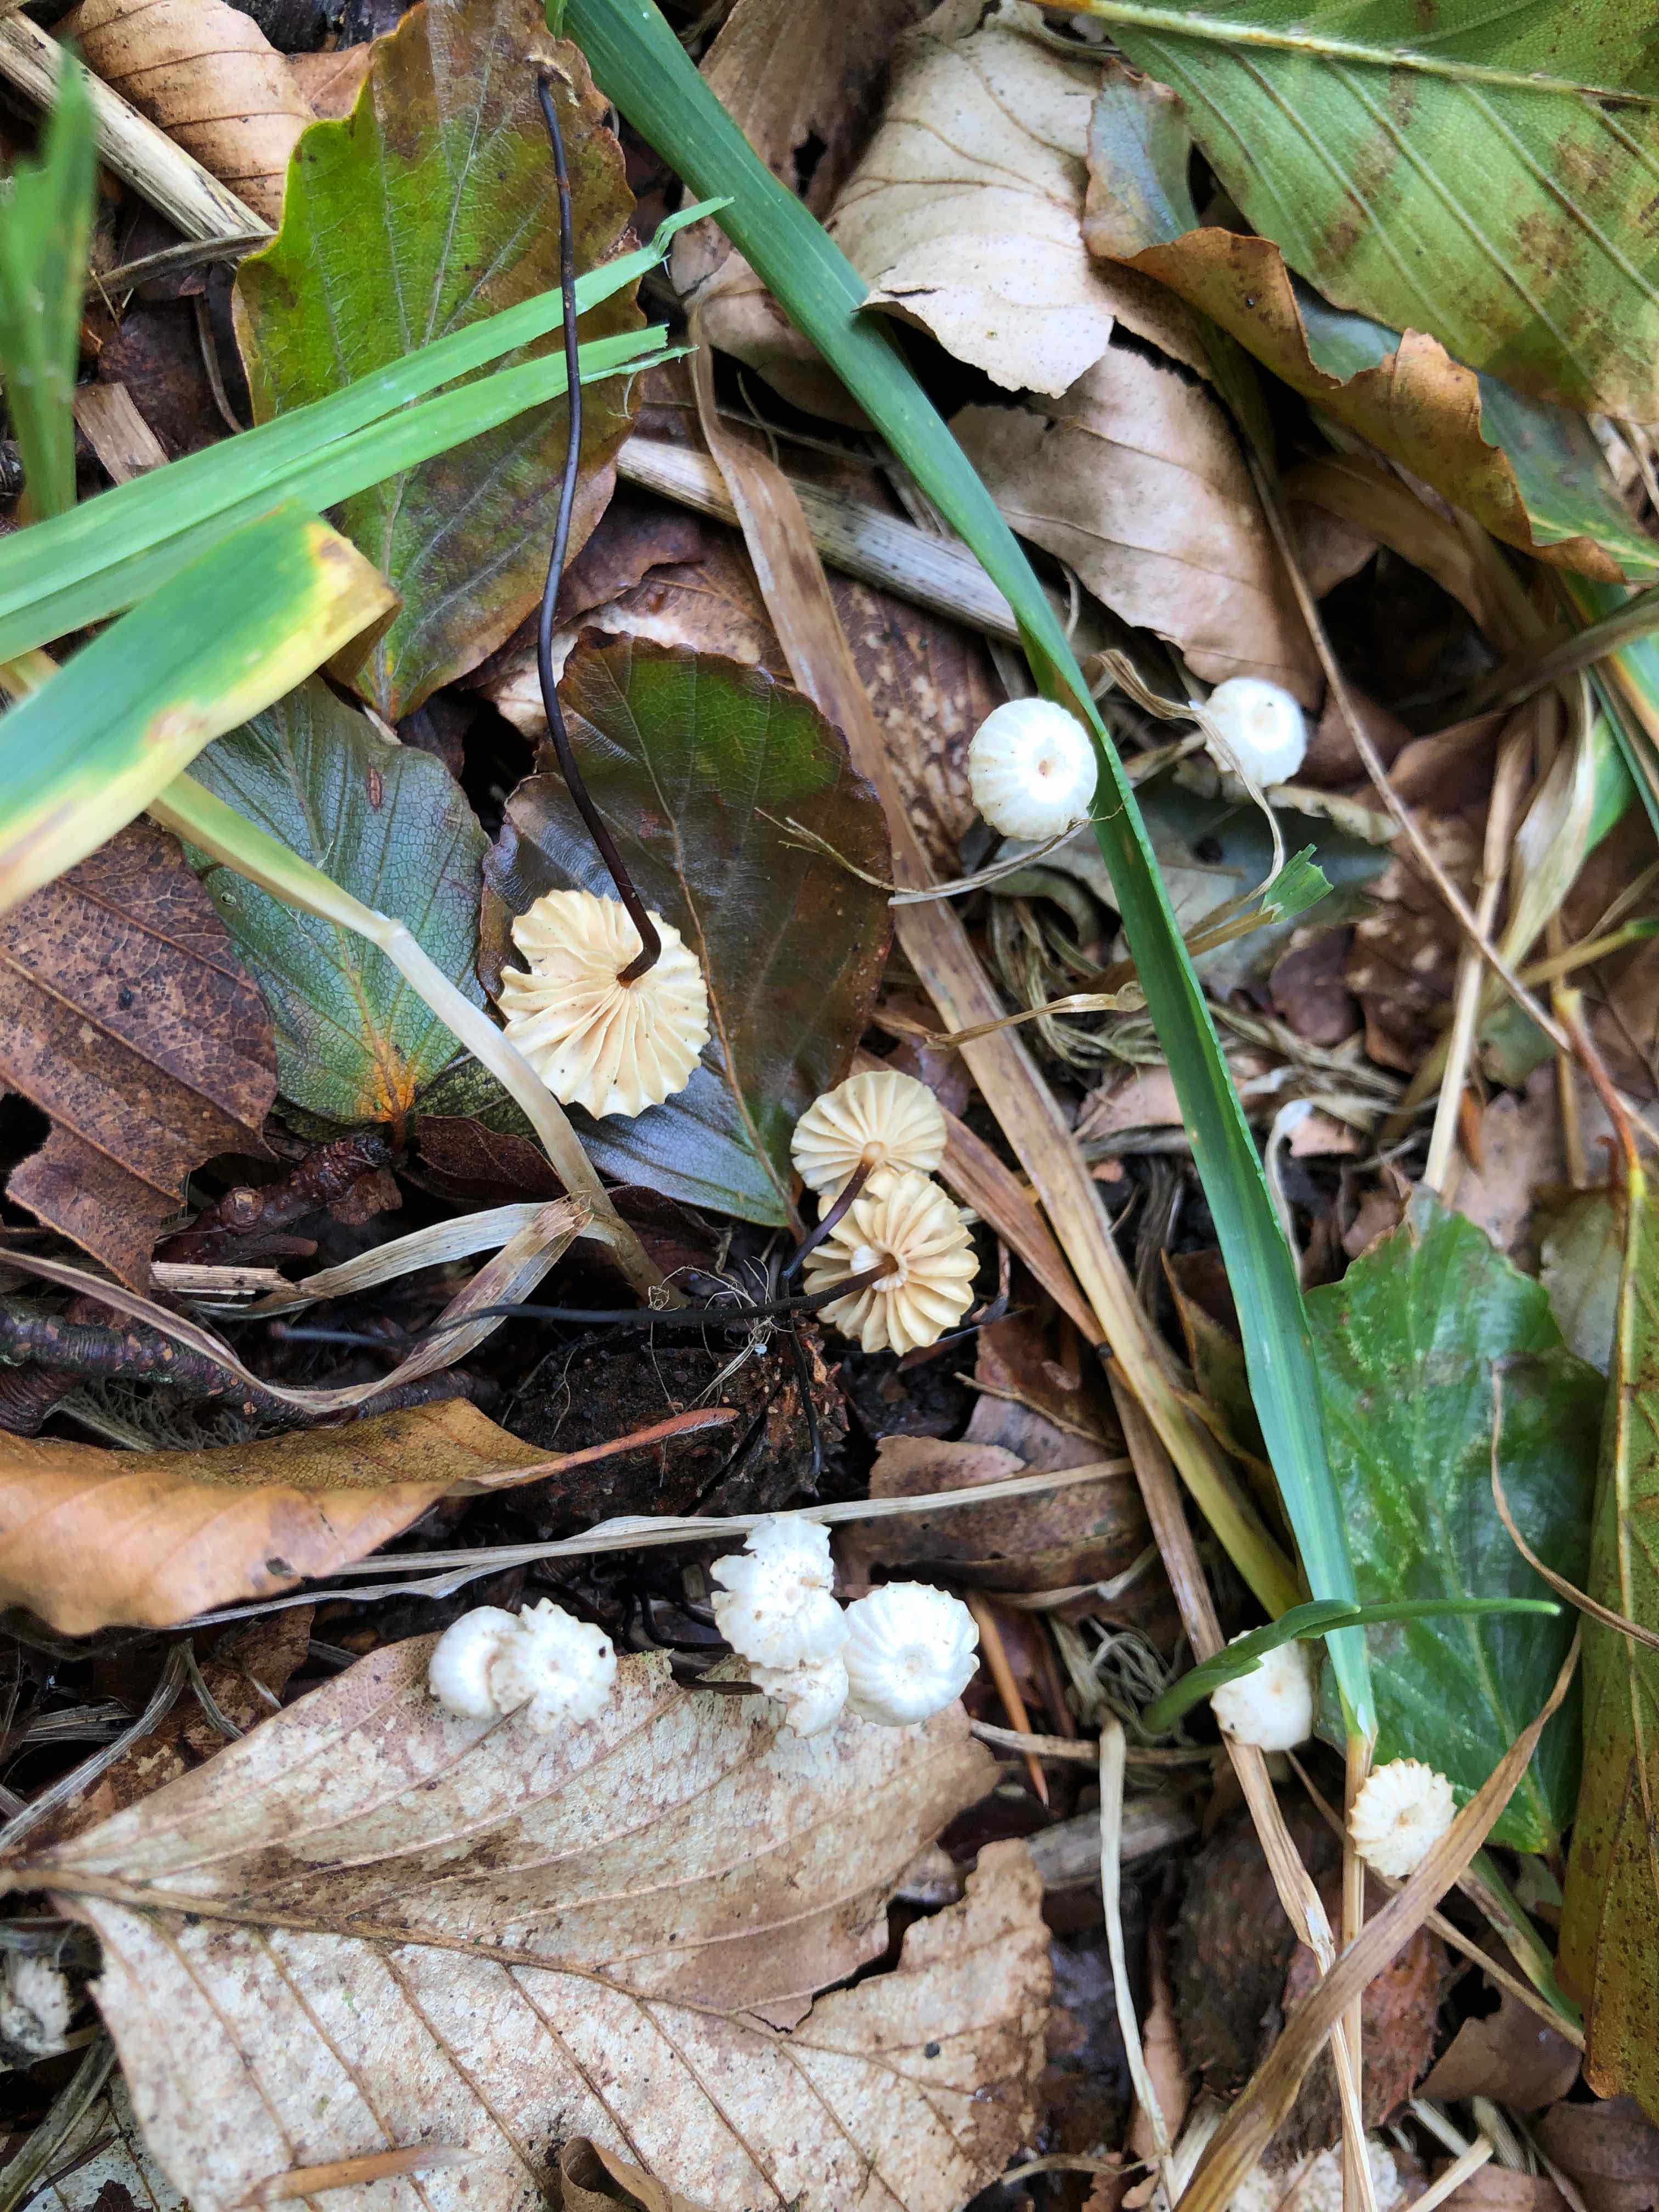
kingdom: Fungi
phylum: Basidiomycota
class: Agaricomycetes
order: Agaricales
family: Marasmiaceae
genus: Marasmius
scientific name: Marasmius rotula
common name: hjul-bruskhat
